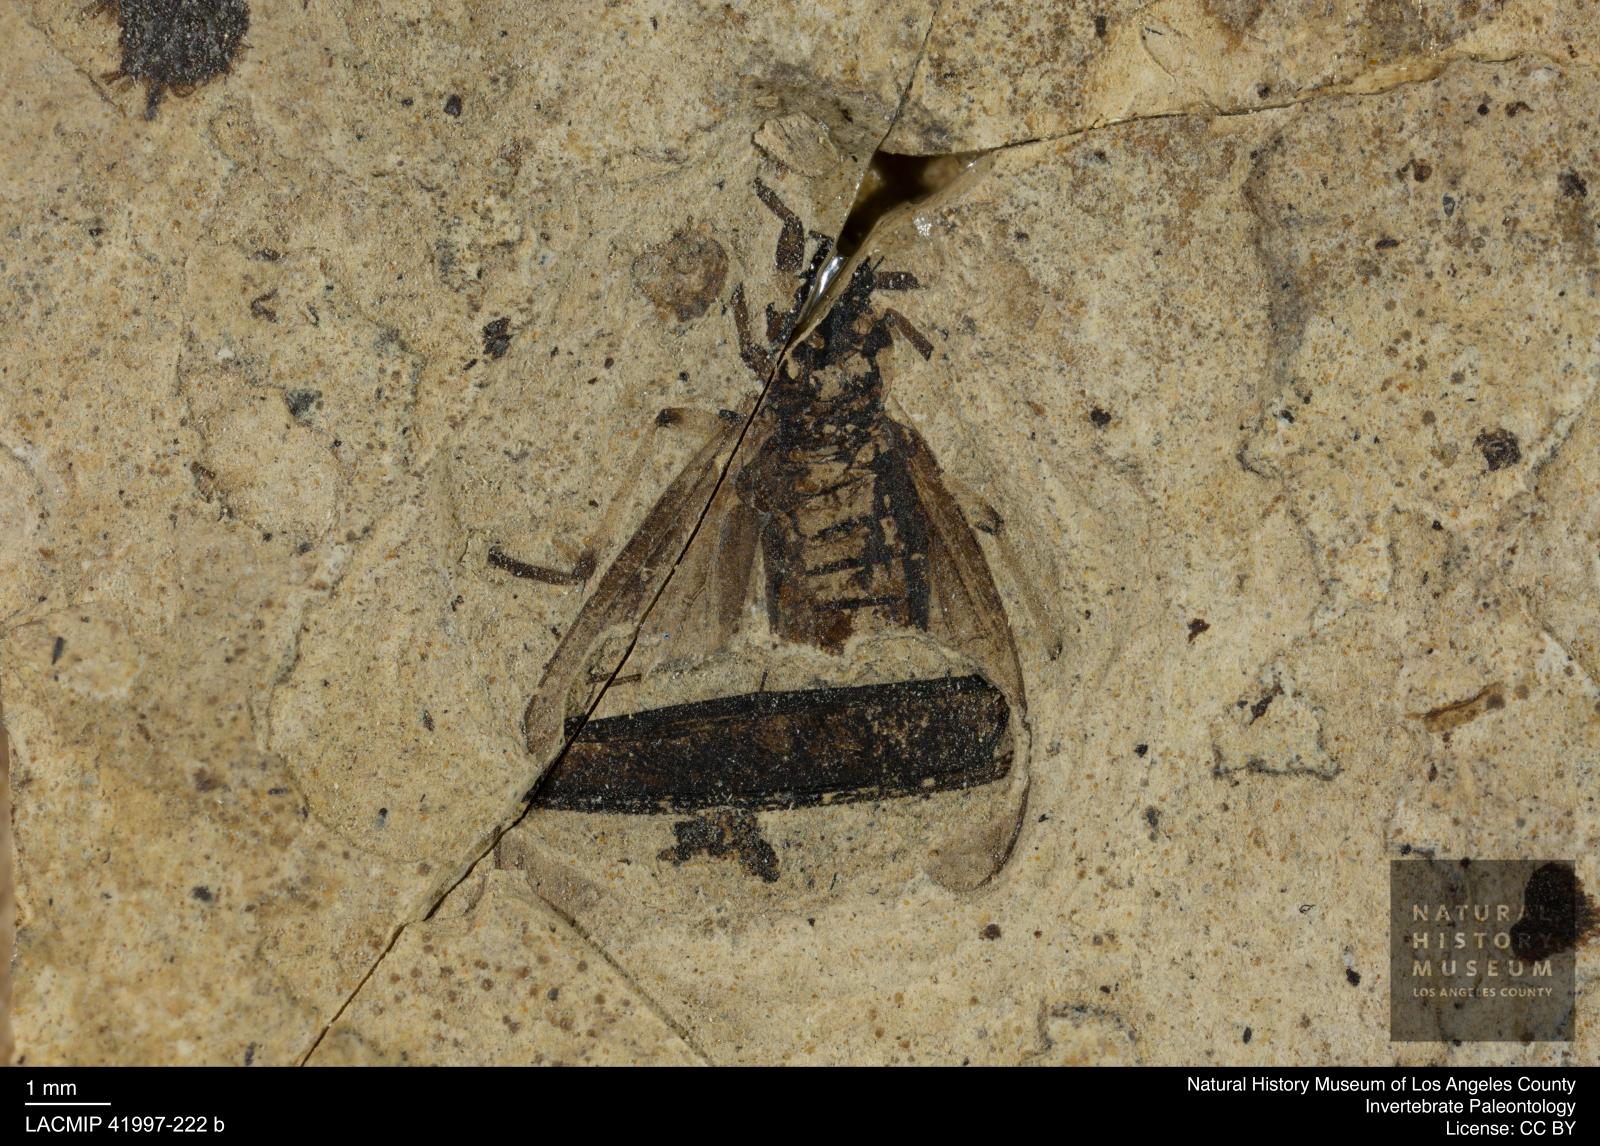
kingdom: Animalia
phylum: Arthropoda
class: Insecta
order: Diptera
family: Bibionidae
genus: Plecia
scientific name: Plecia stygia
